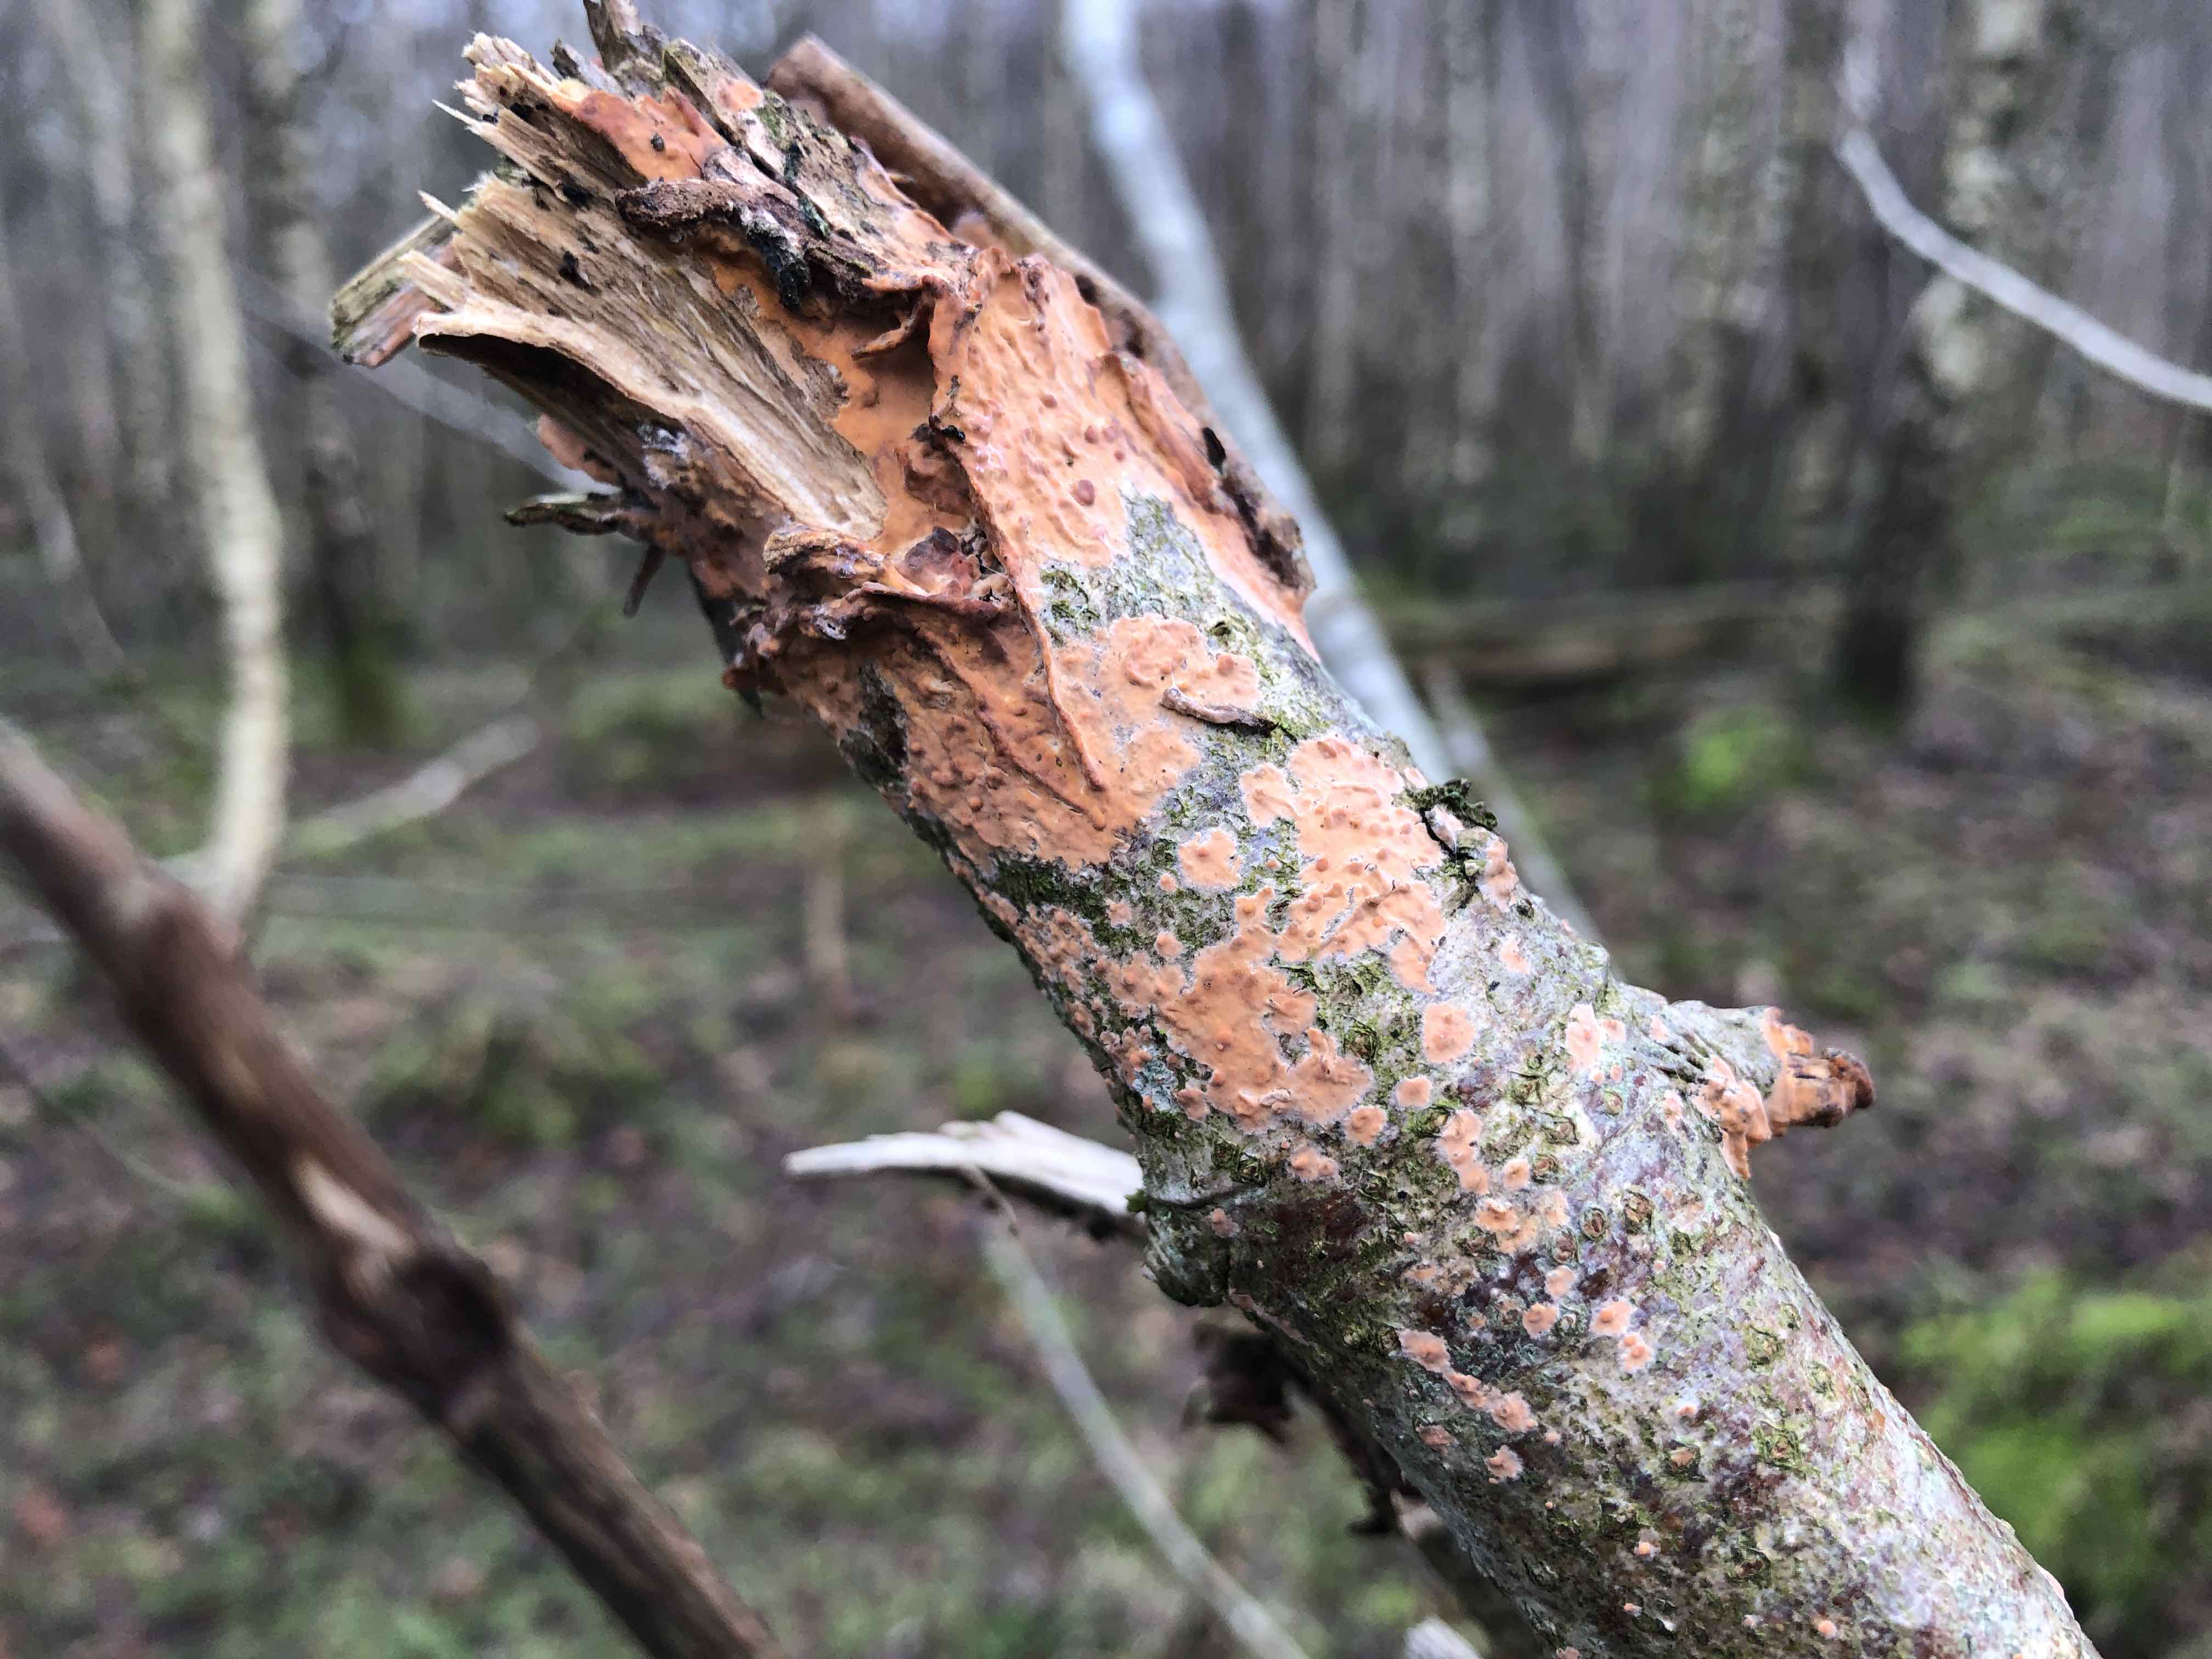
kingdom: Fungi
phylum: Basidiomycota
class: Agaricomycetes
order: Russulales
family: Peniophoraceae
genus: Peniophora
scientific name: Peniophora incarnata
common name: laksefarvet voksskind
